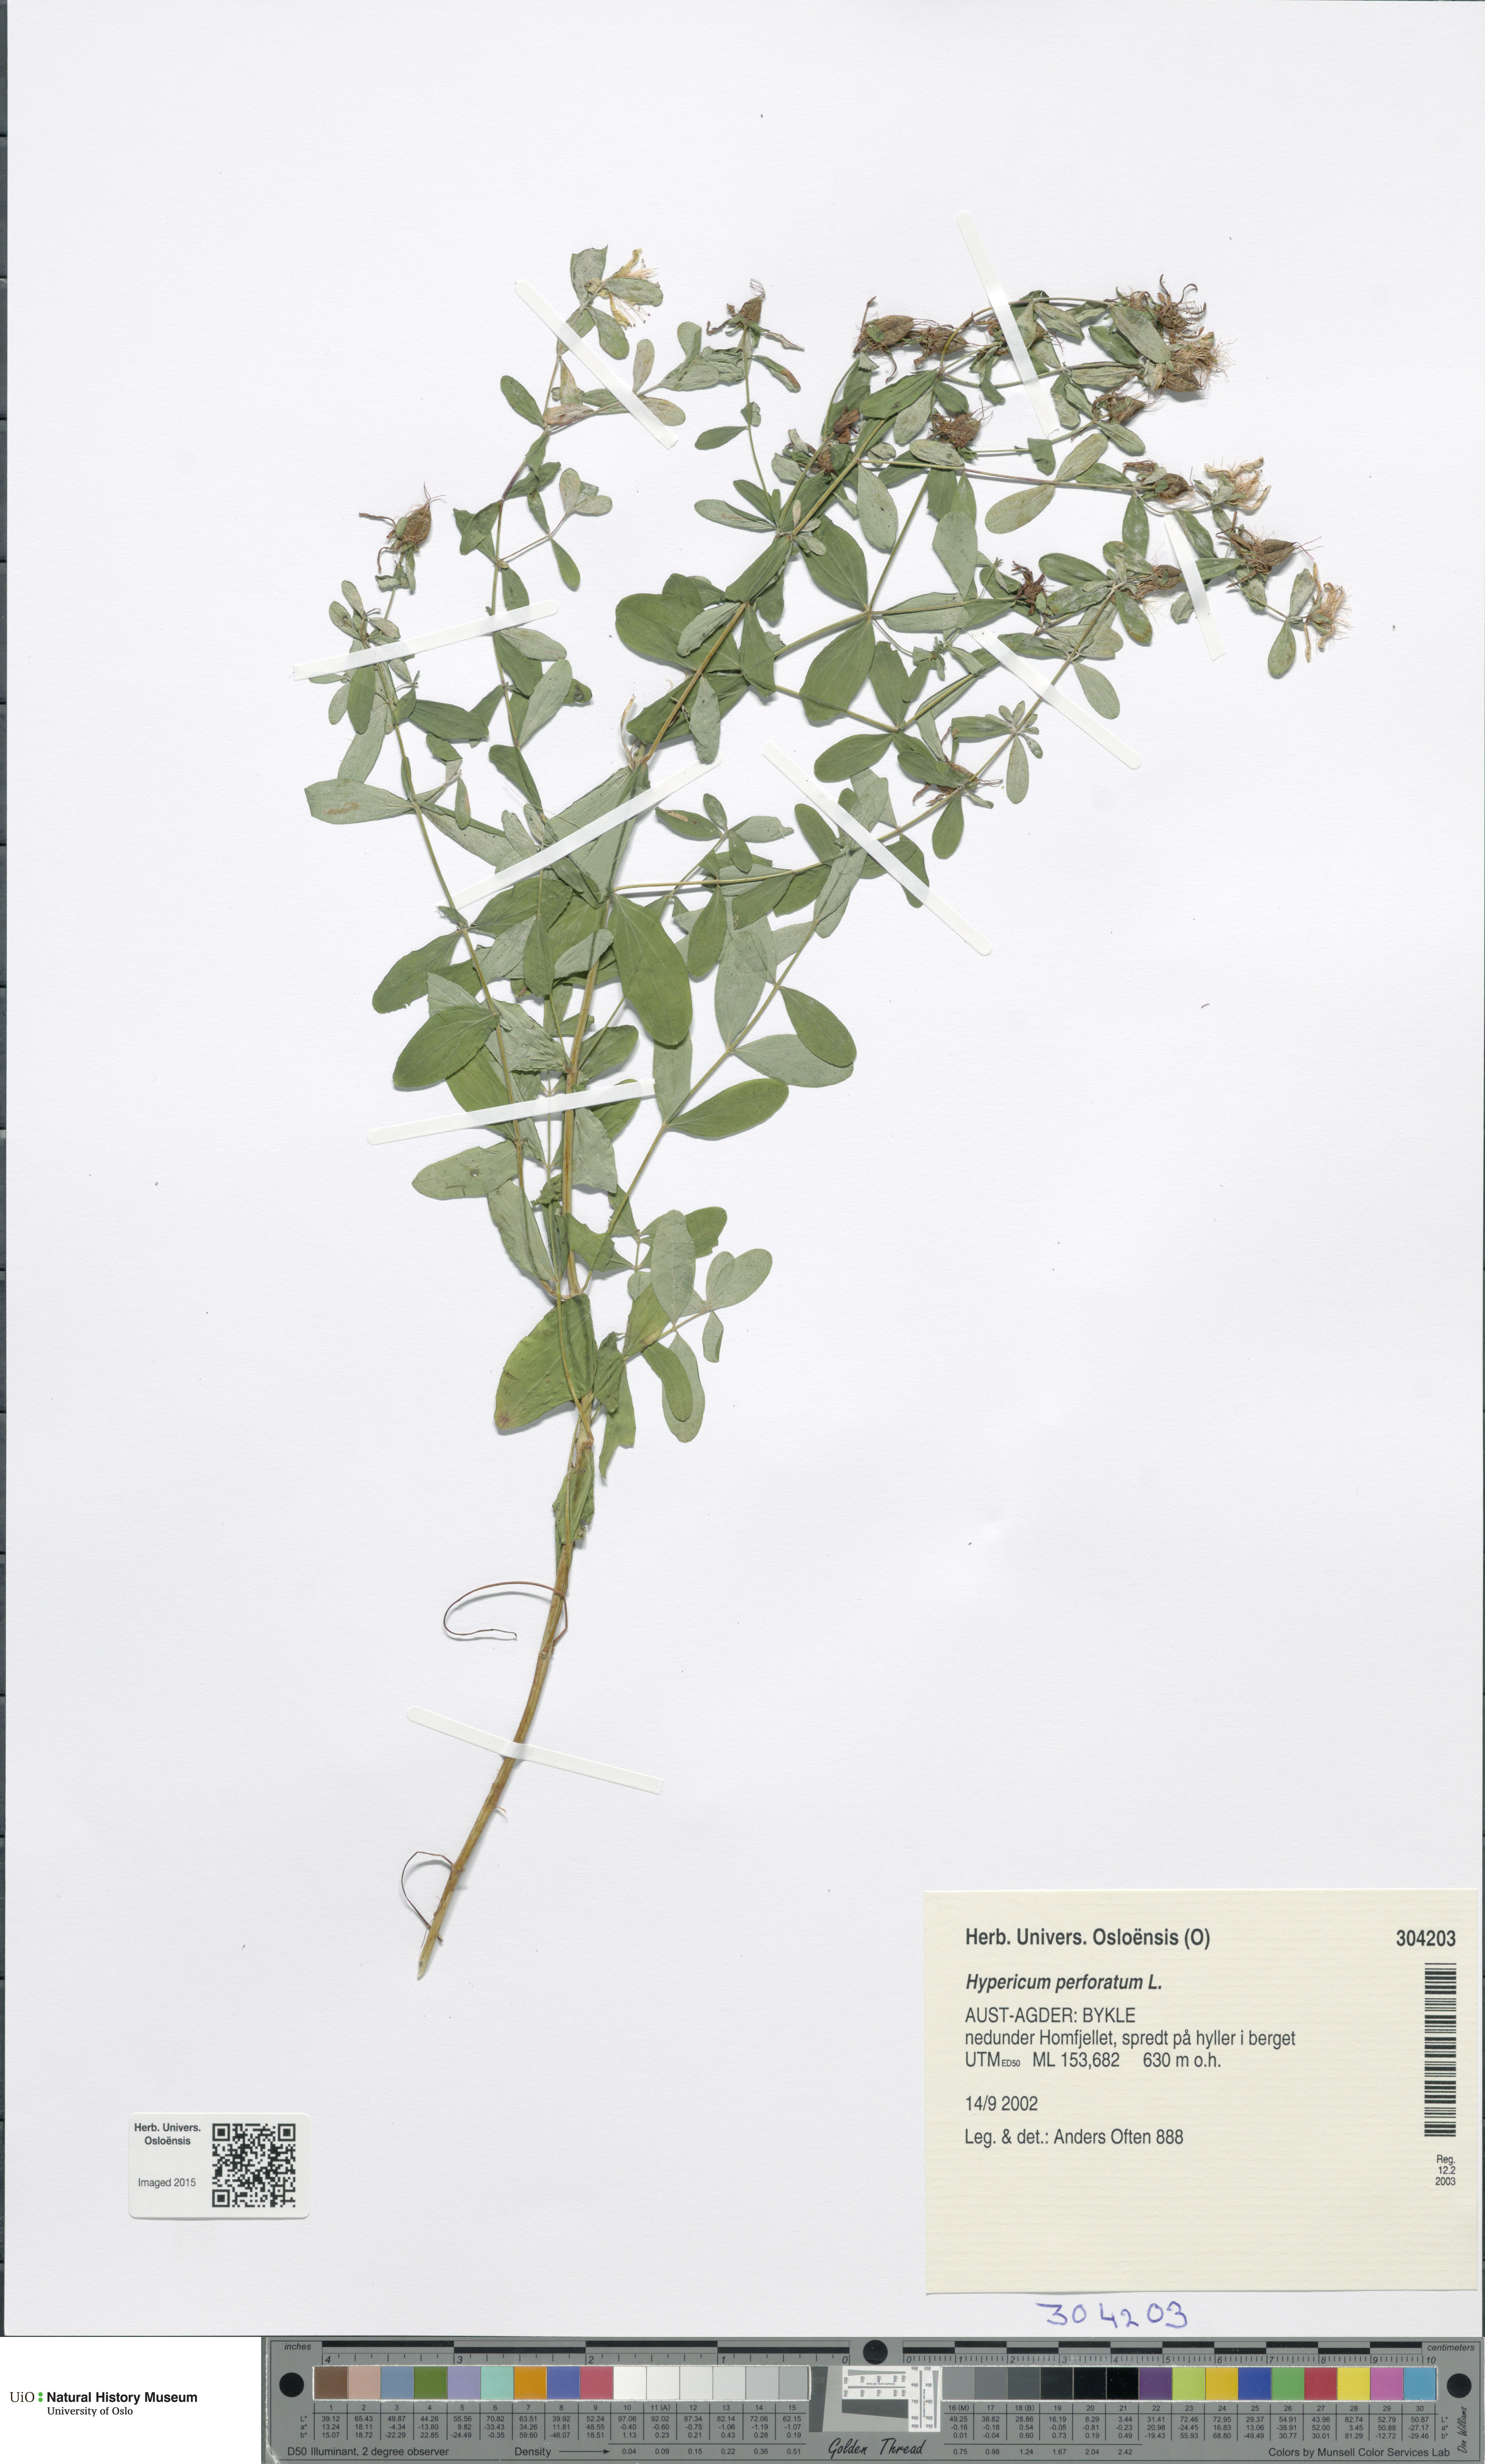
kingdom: Plantae
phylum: Tracheophyta
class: Magnoliopsida
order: Malpighiales
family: Hypericaceae
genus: Hypericum
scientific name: Hypericum perforatum
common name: Common st. johnswort
